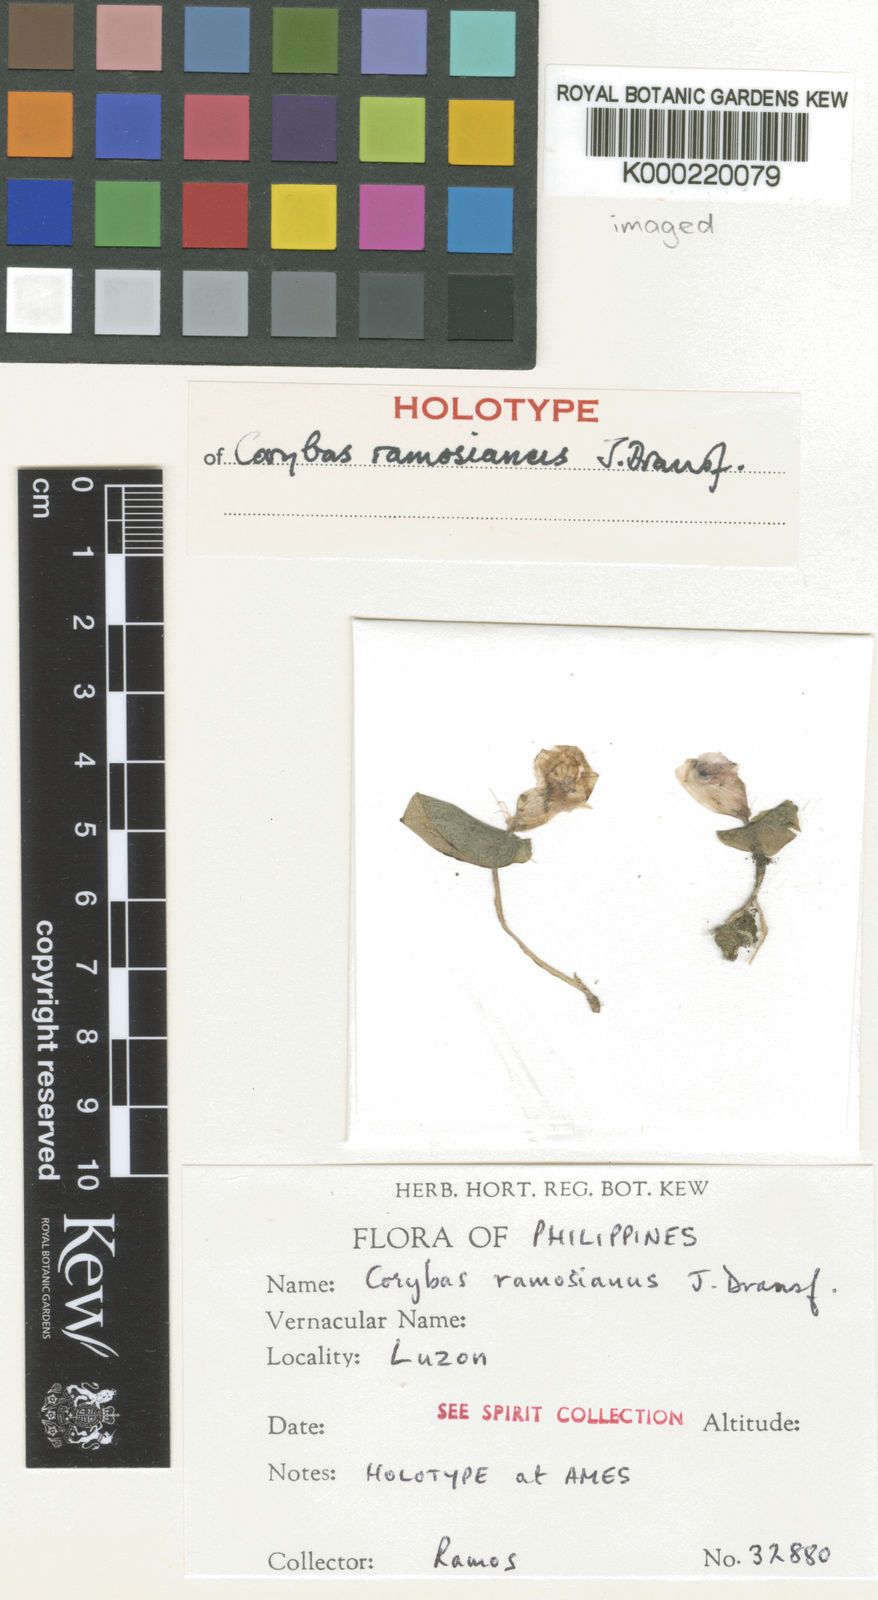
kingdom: Plantae
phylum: Tracheophyta
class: Liliopsida
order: Asparagales
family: Orchidaceae
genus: Corybas
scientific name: Corybas ramosianus
